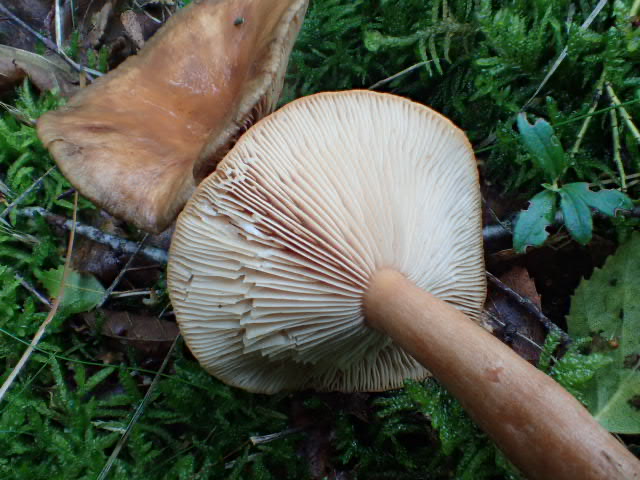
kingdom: Fungi
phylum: Basidiomycota
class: Agaricomycetes
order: Russulales
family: Russulaceae
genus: Lactarius
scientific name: Lactarius
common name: mælkehat
